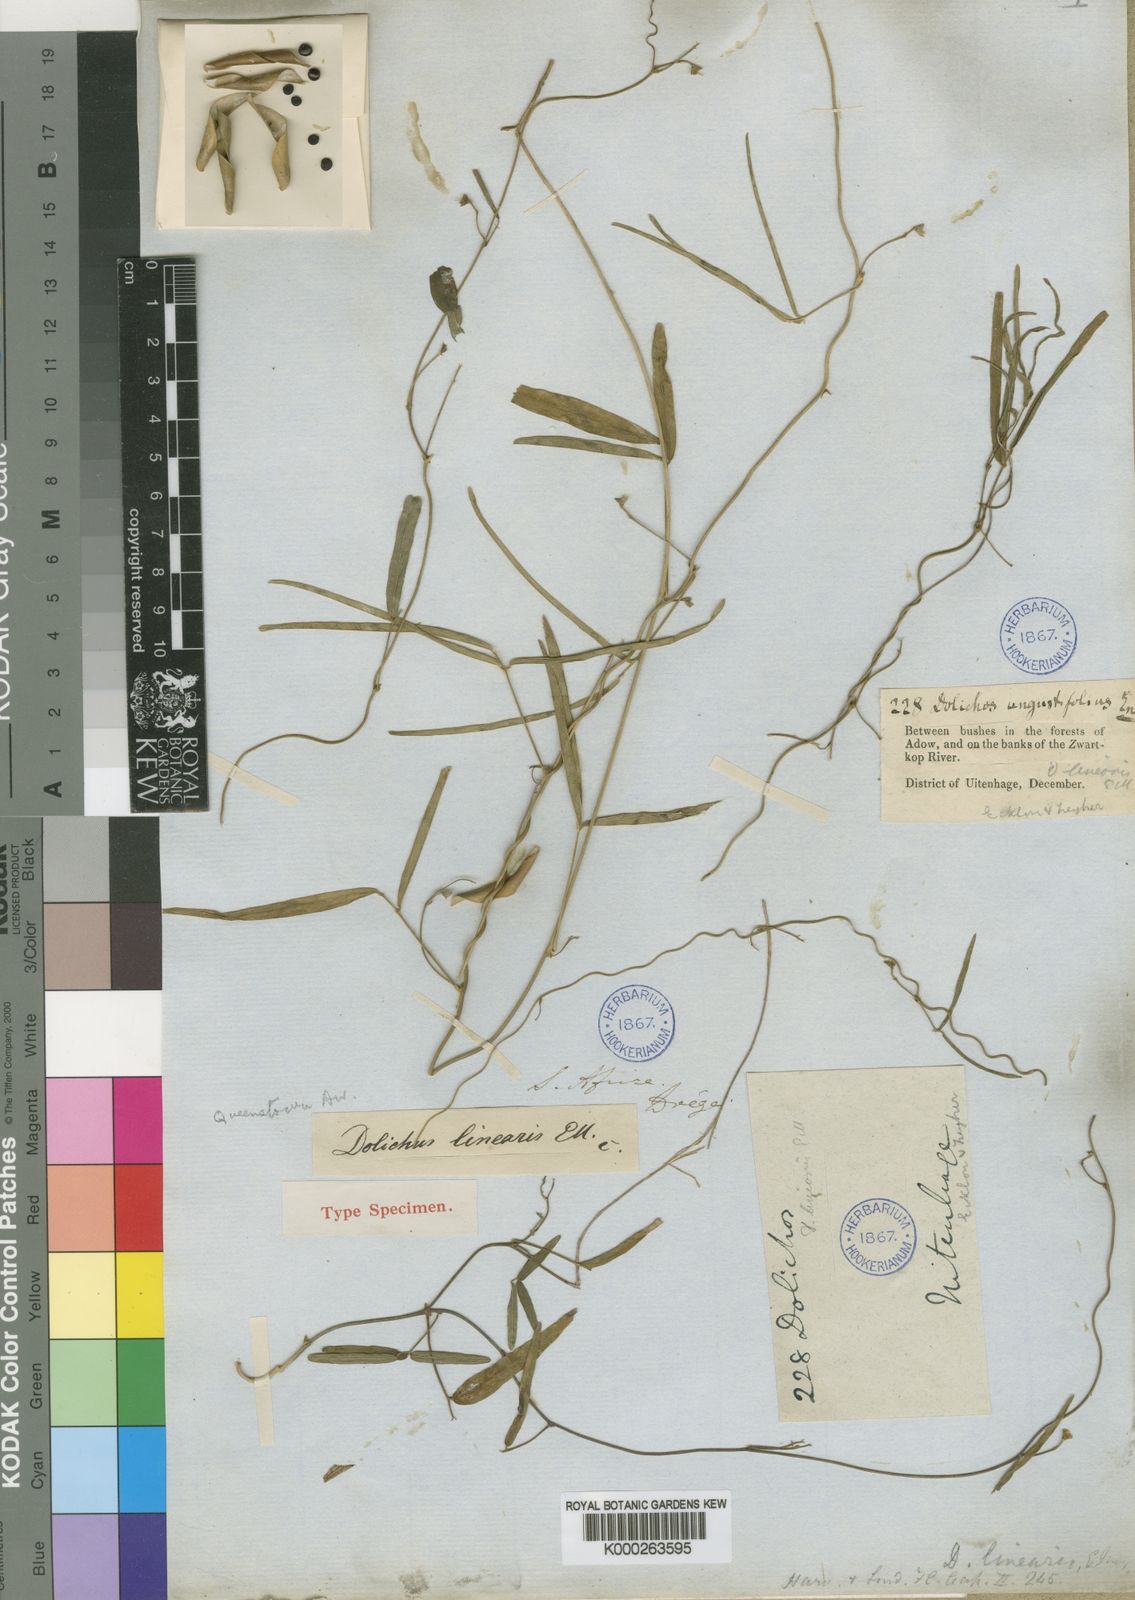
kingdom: Plantae
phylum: Tracheophyta
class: Magnoliopsida
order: Fabales
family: Fabaceae
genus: Dolichos
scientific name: Dolichos linearis
